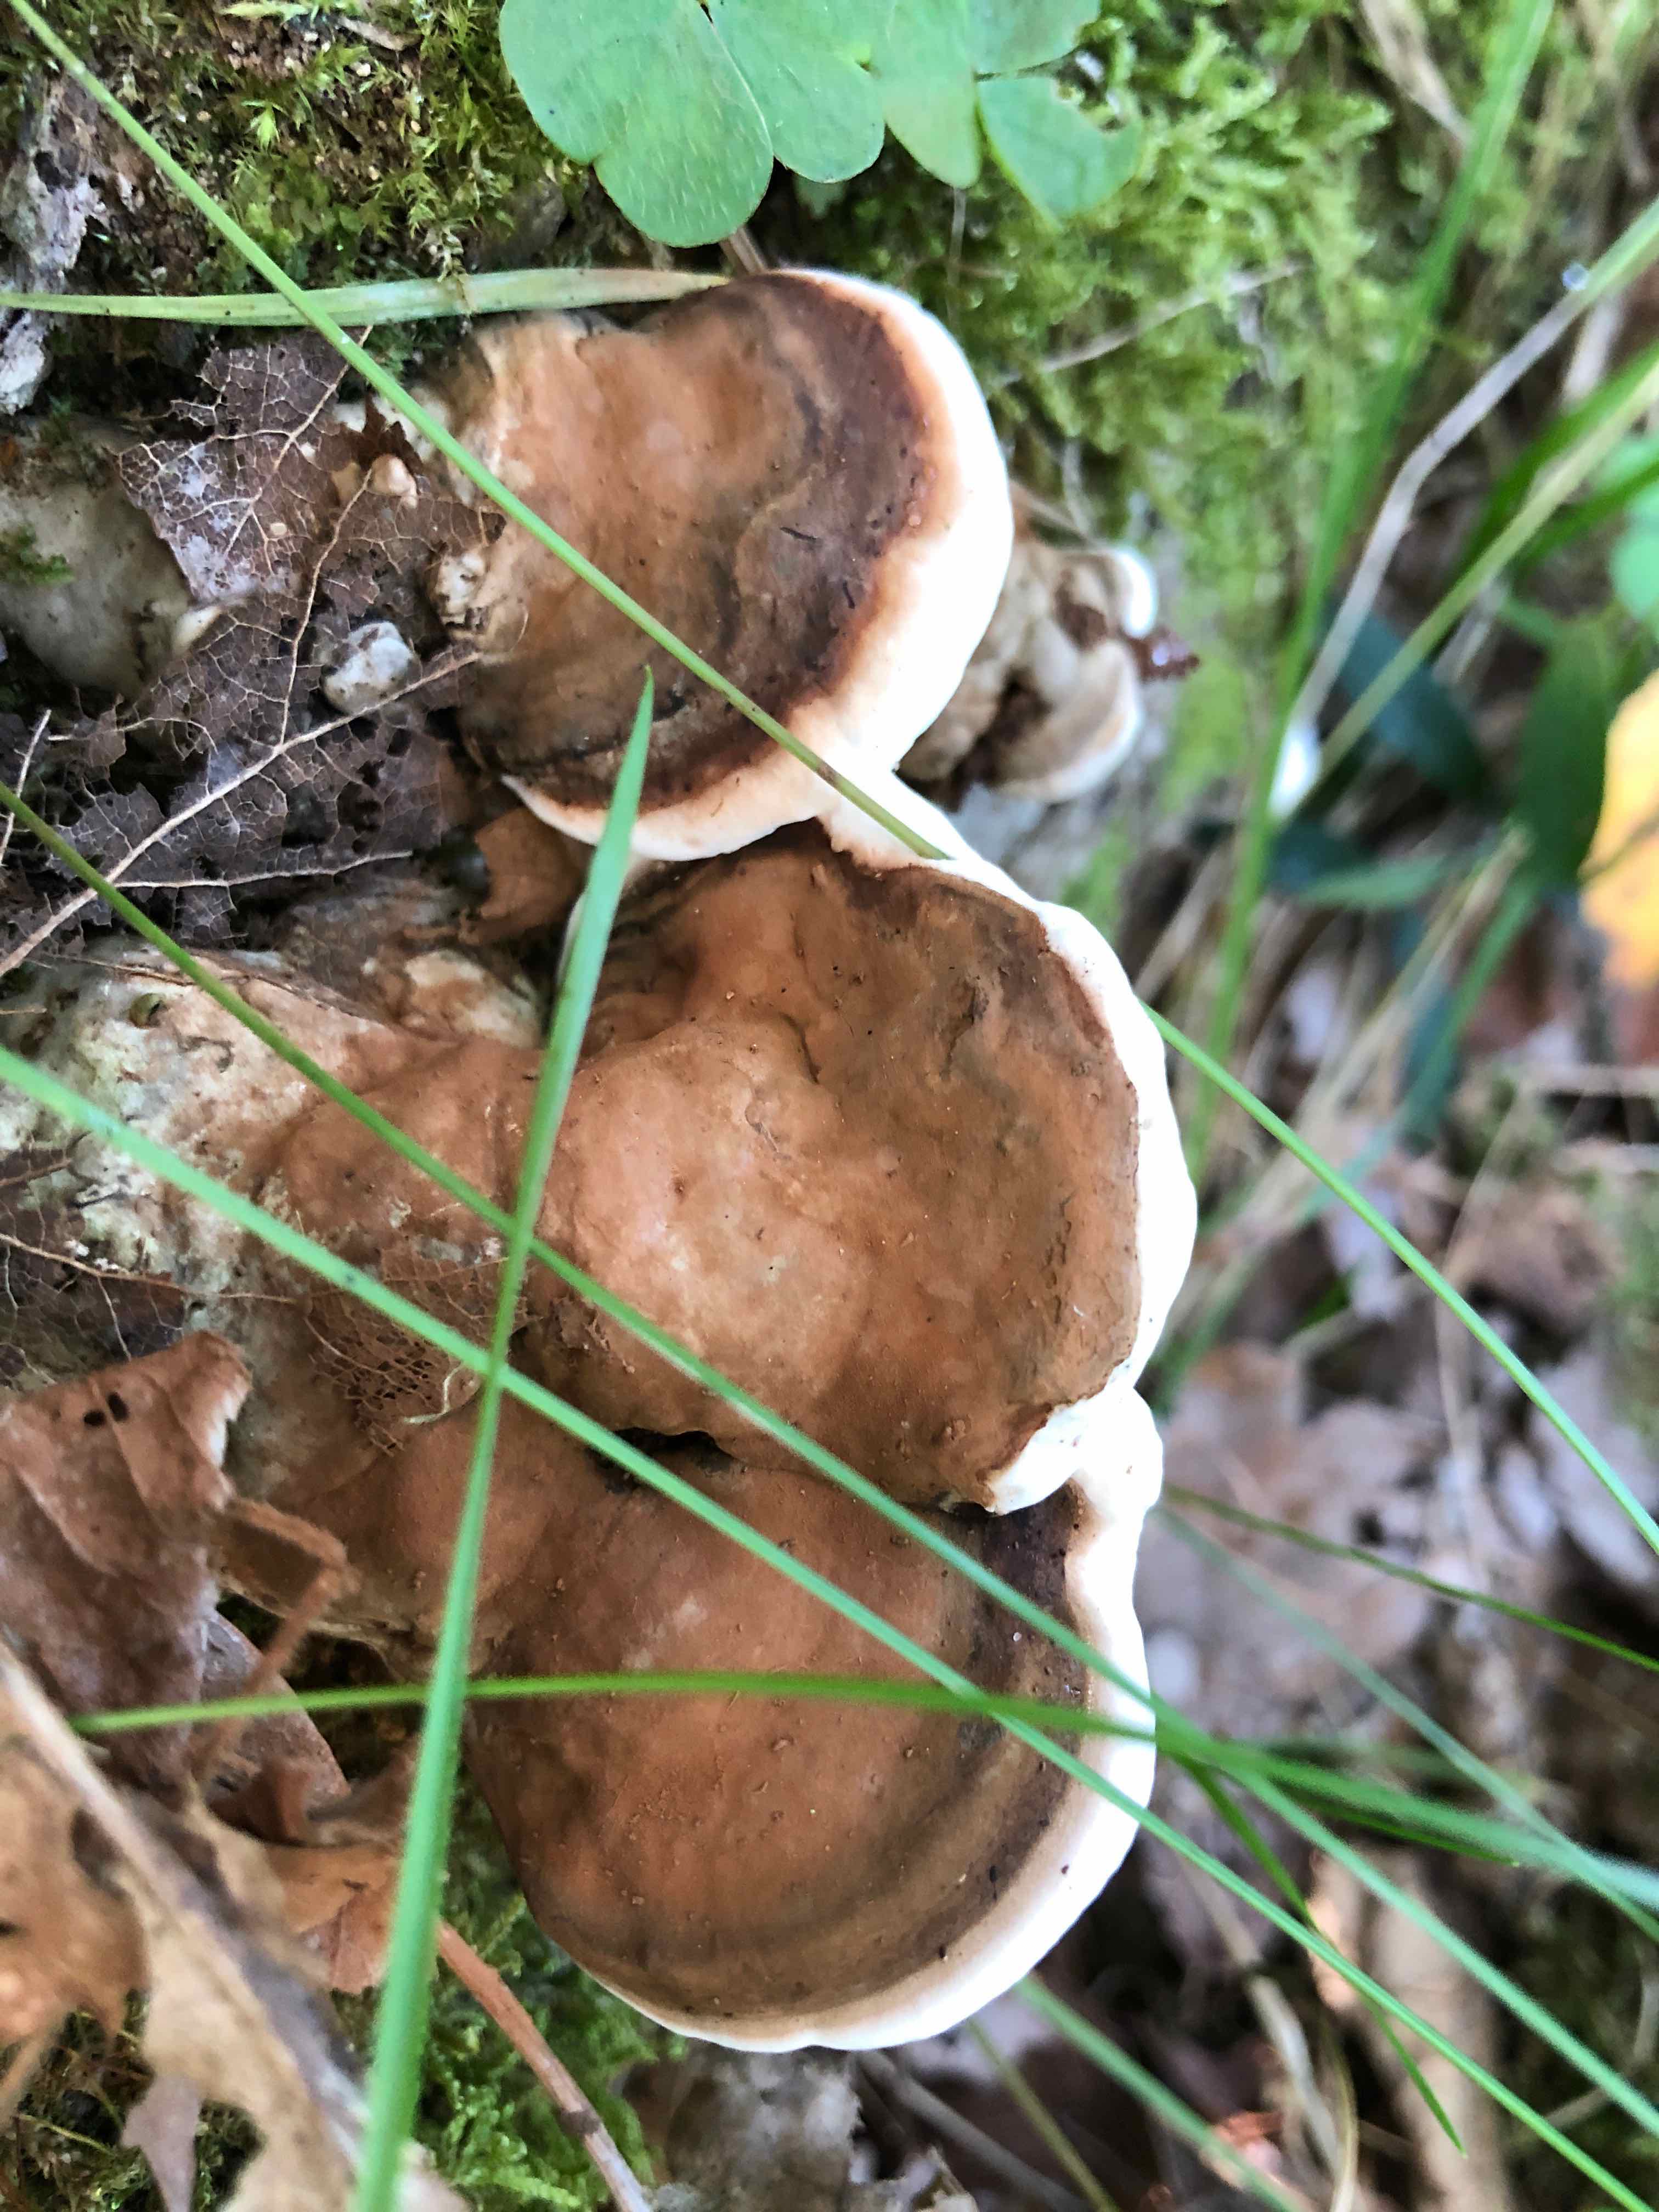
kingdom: Fungi
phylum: Basidiomycota
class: Agaricomycetes
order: Polyporales
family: Polyporaceae
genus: Ganoderma
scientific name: Ganoderma applanatum
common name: flad lakporesvamp
